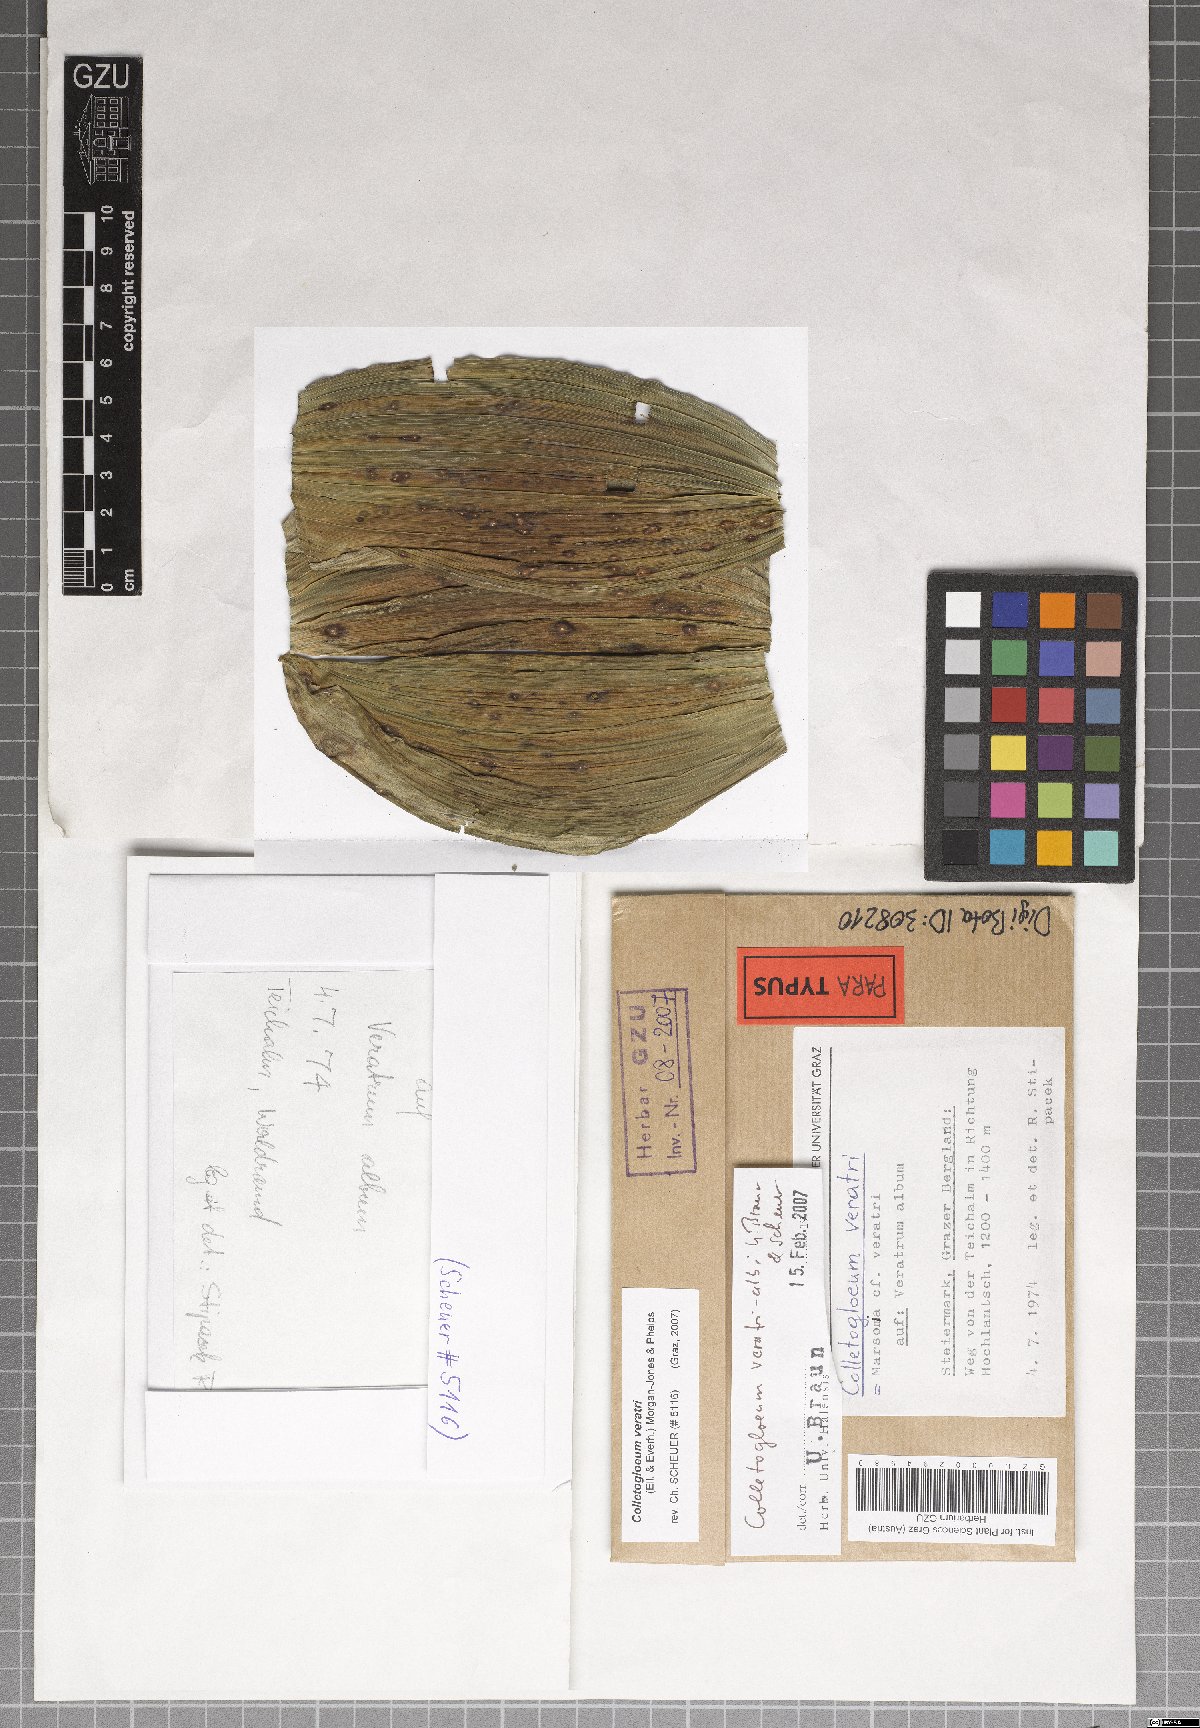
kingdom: Fungi
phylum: Ascomycota
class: Dothideomycetes
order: Mycosphaerellales
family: Mycosphaerellaceae
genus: Colletogloeum
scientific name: Colletogloeum veratri-albi
